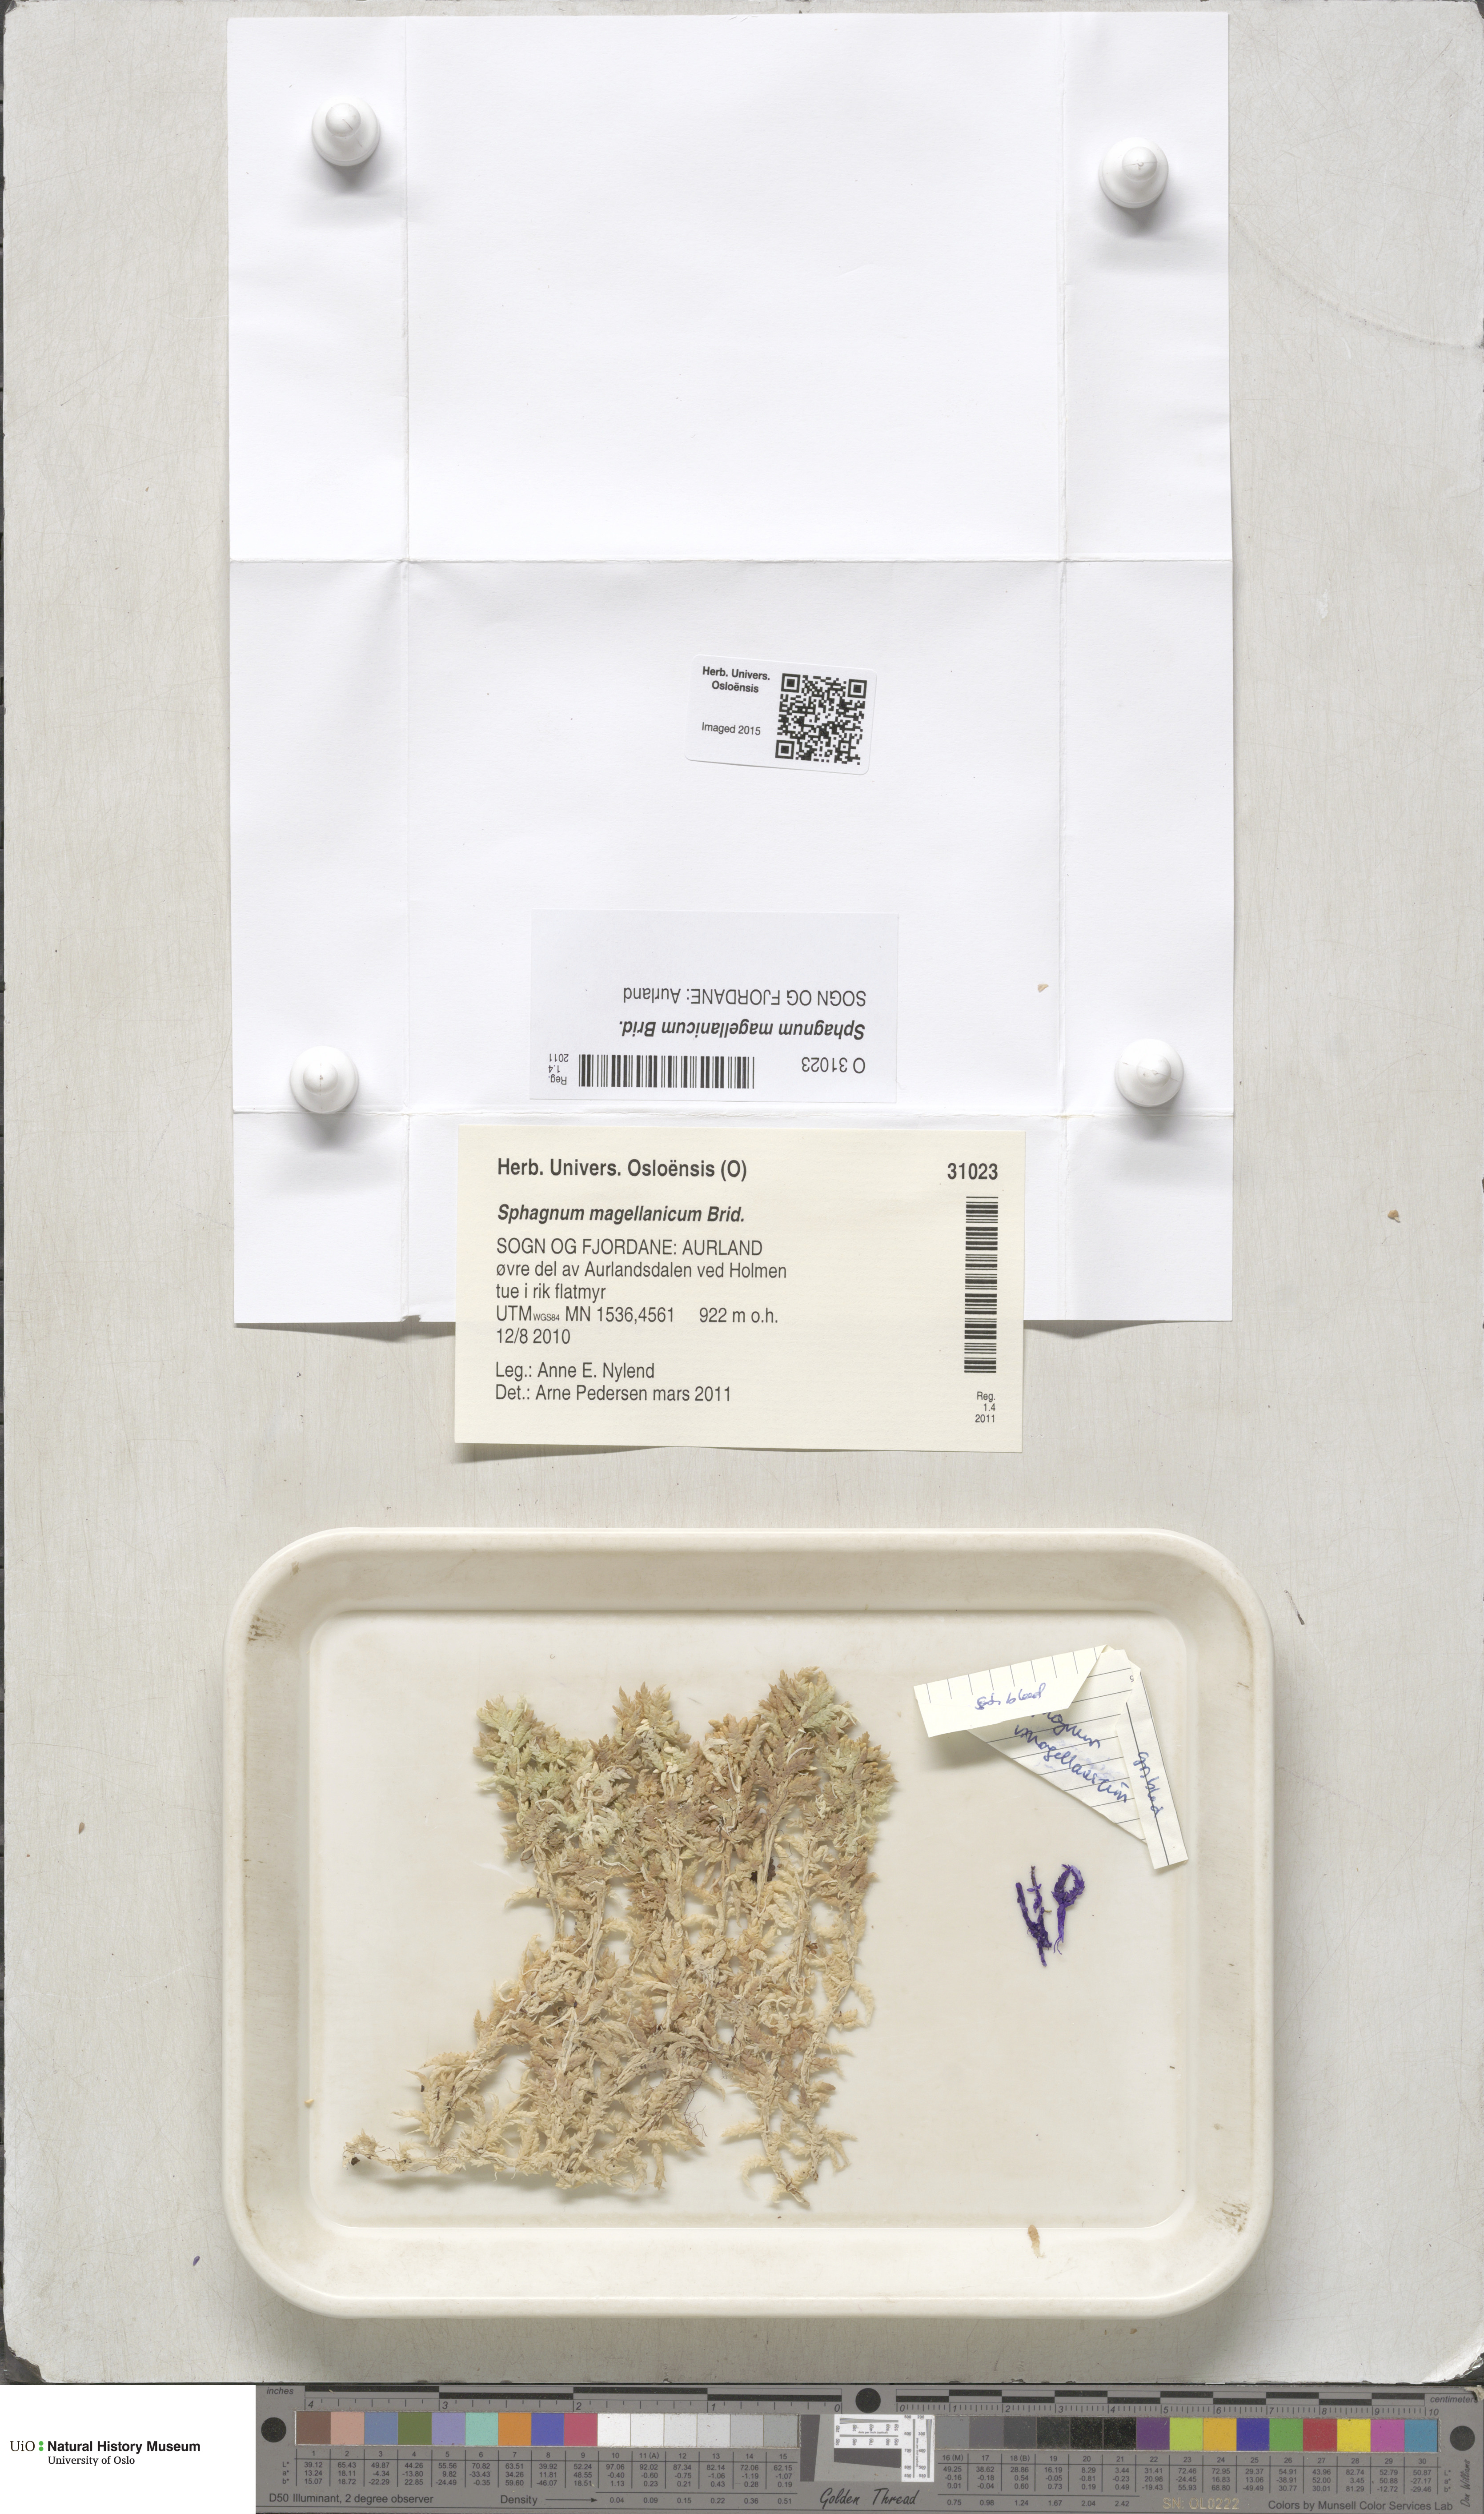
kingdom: Plantae
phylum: Bryophyta
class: Sphagnopsida
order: Sphagnales
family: Sphagnaceae
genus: Sphagnum
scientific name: Sphagnum magellanicum
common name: Magellan's peat moss
